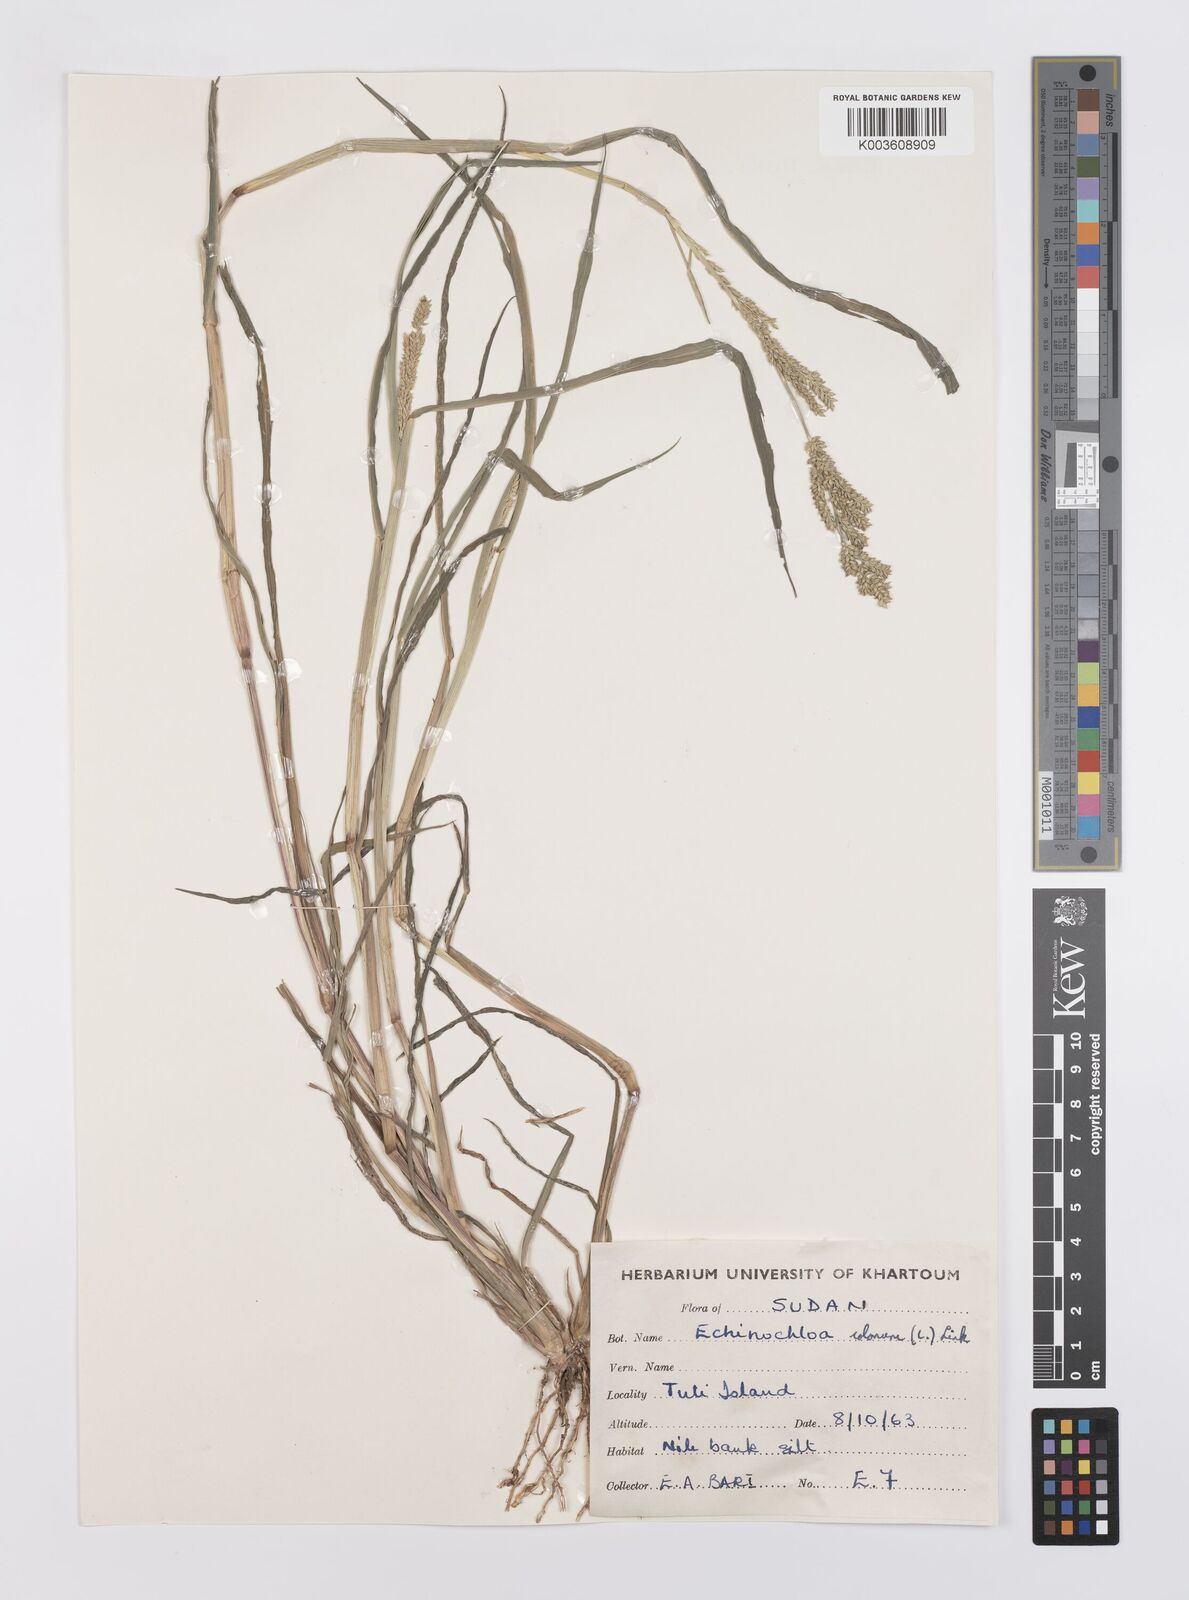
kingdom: Plantae
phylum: Tracheophyta
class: Liliopsida
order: Poales
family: Poaceae
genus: Echinochloa
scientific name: Echinochloa colonum
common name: Jungle rice
